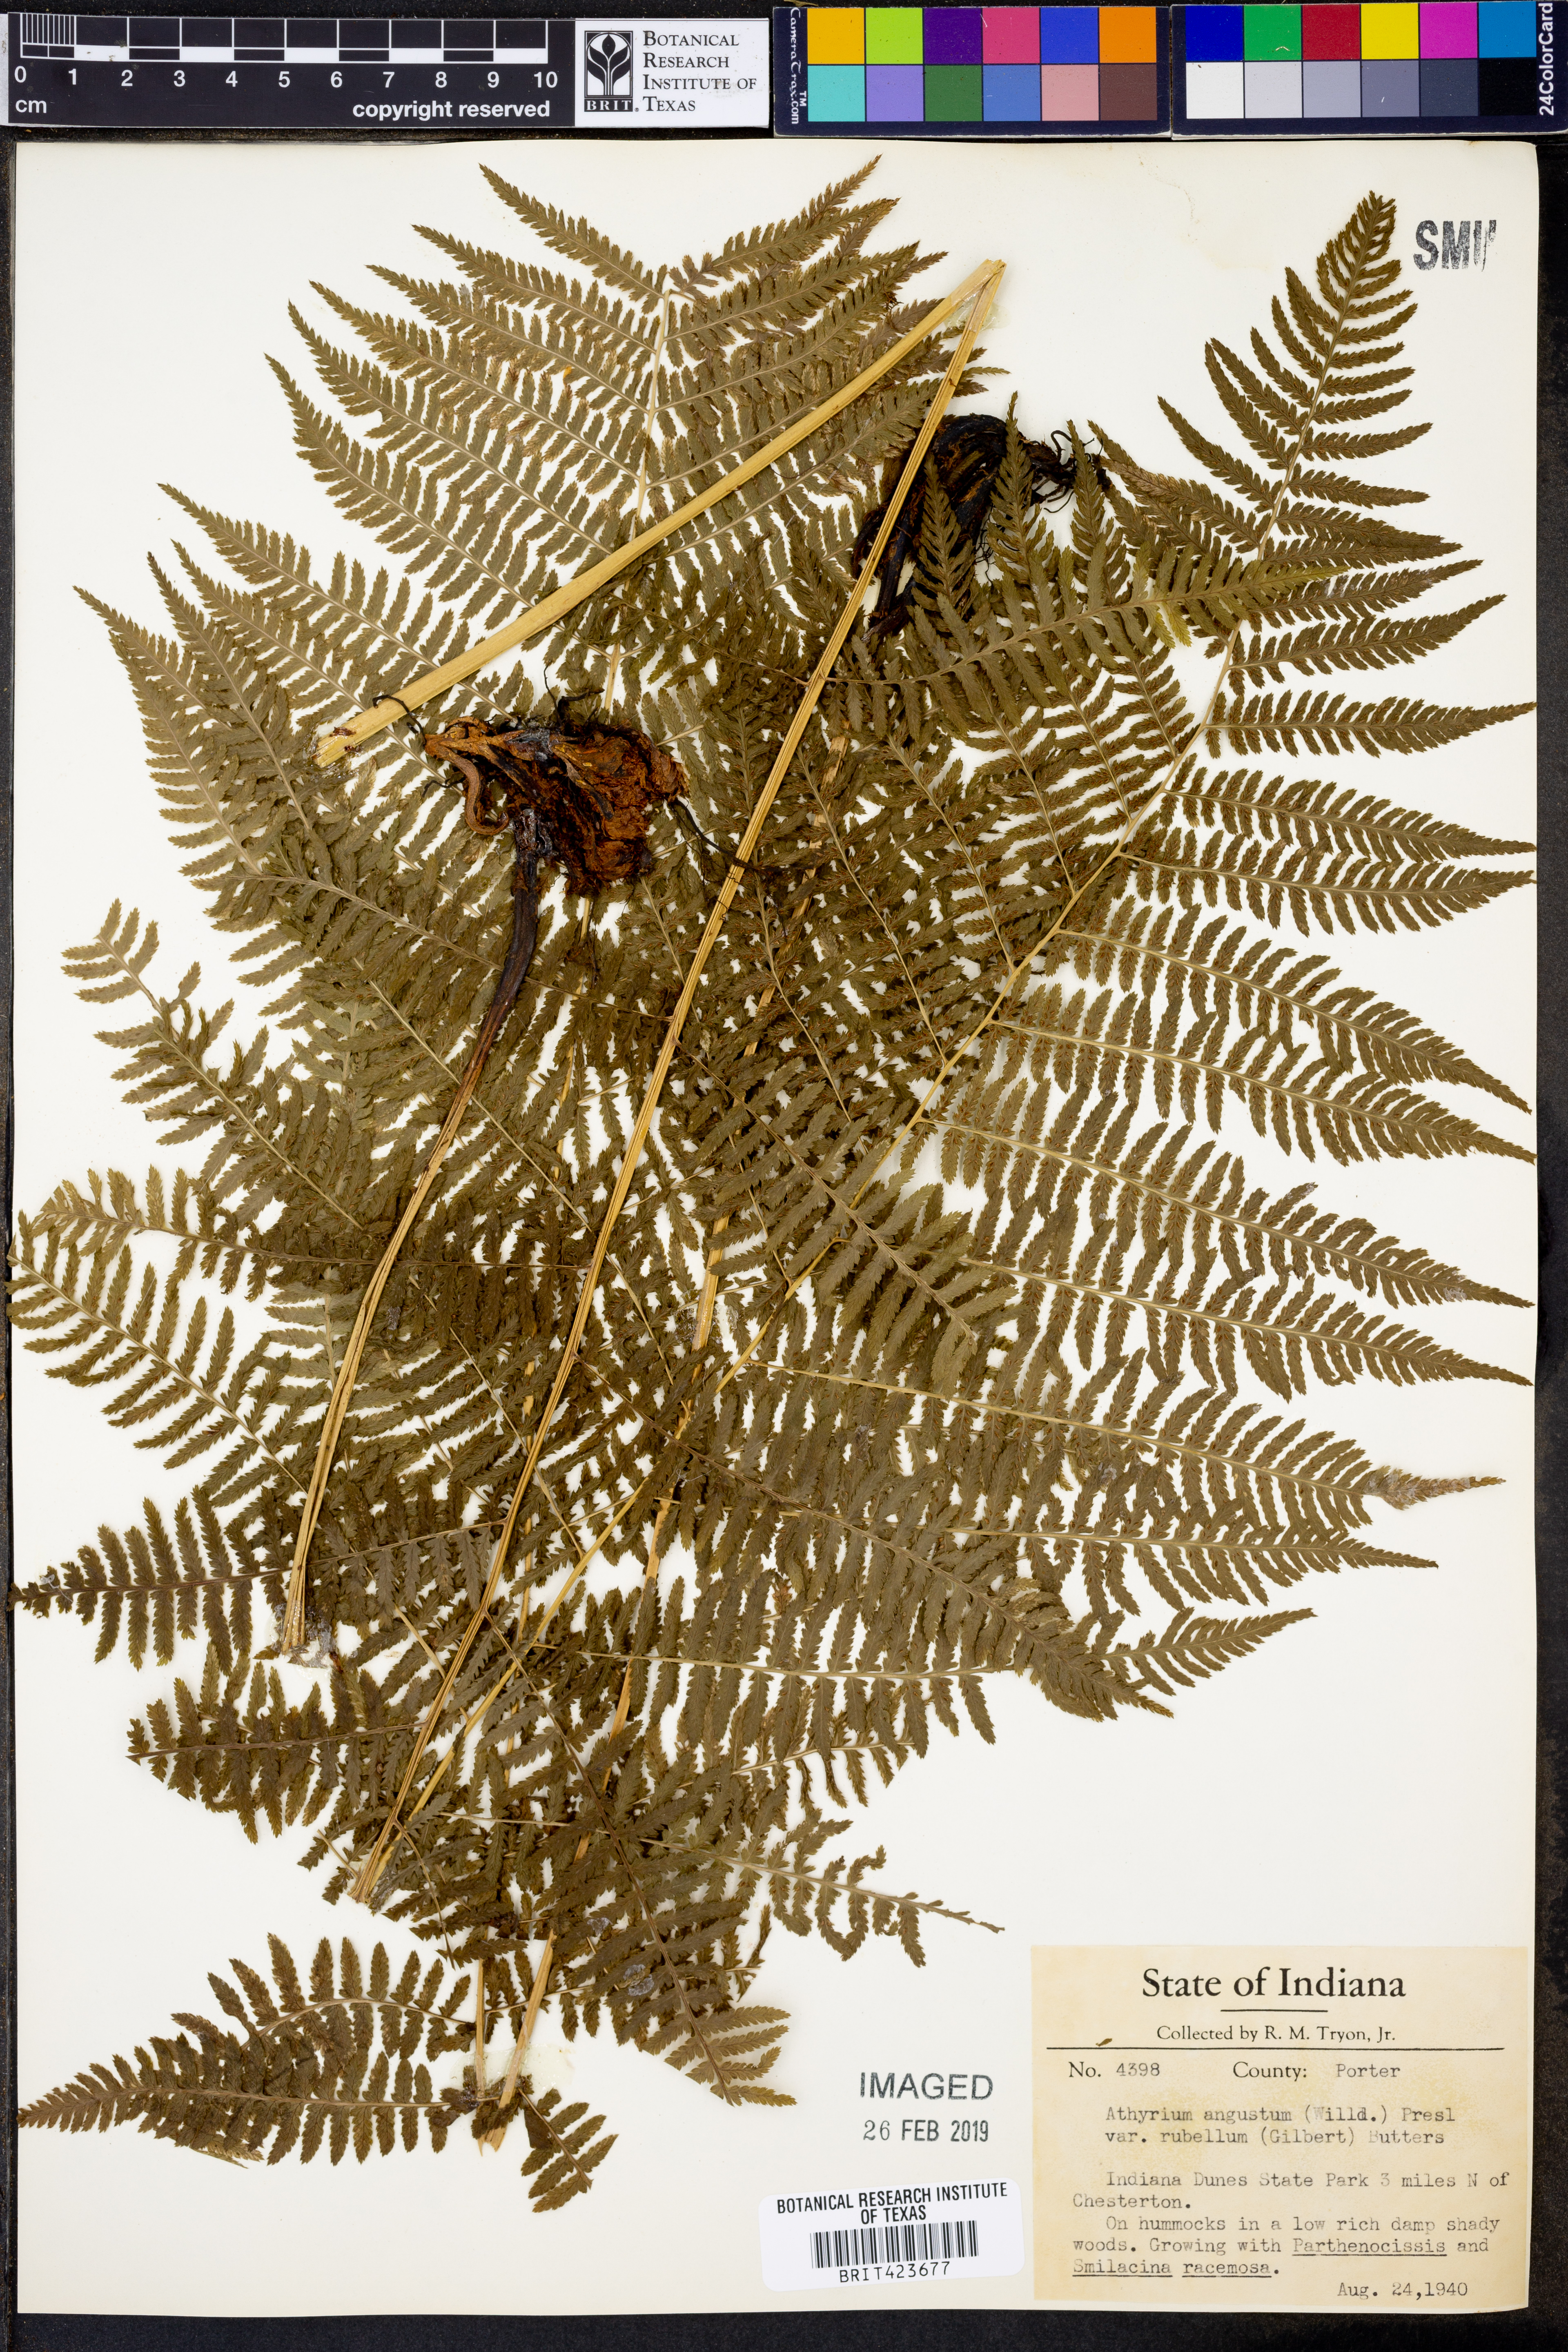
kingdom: Plantae
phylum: Tracheophyta
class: Polypodiopsida
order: Polypodiales
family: Athyriaceae
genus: Athyrium
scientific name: Athyrium angustum
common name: Northern lady fern
